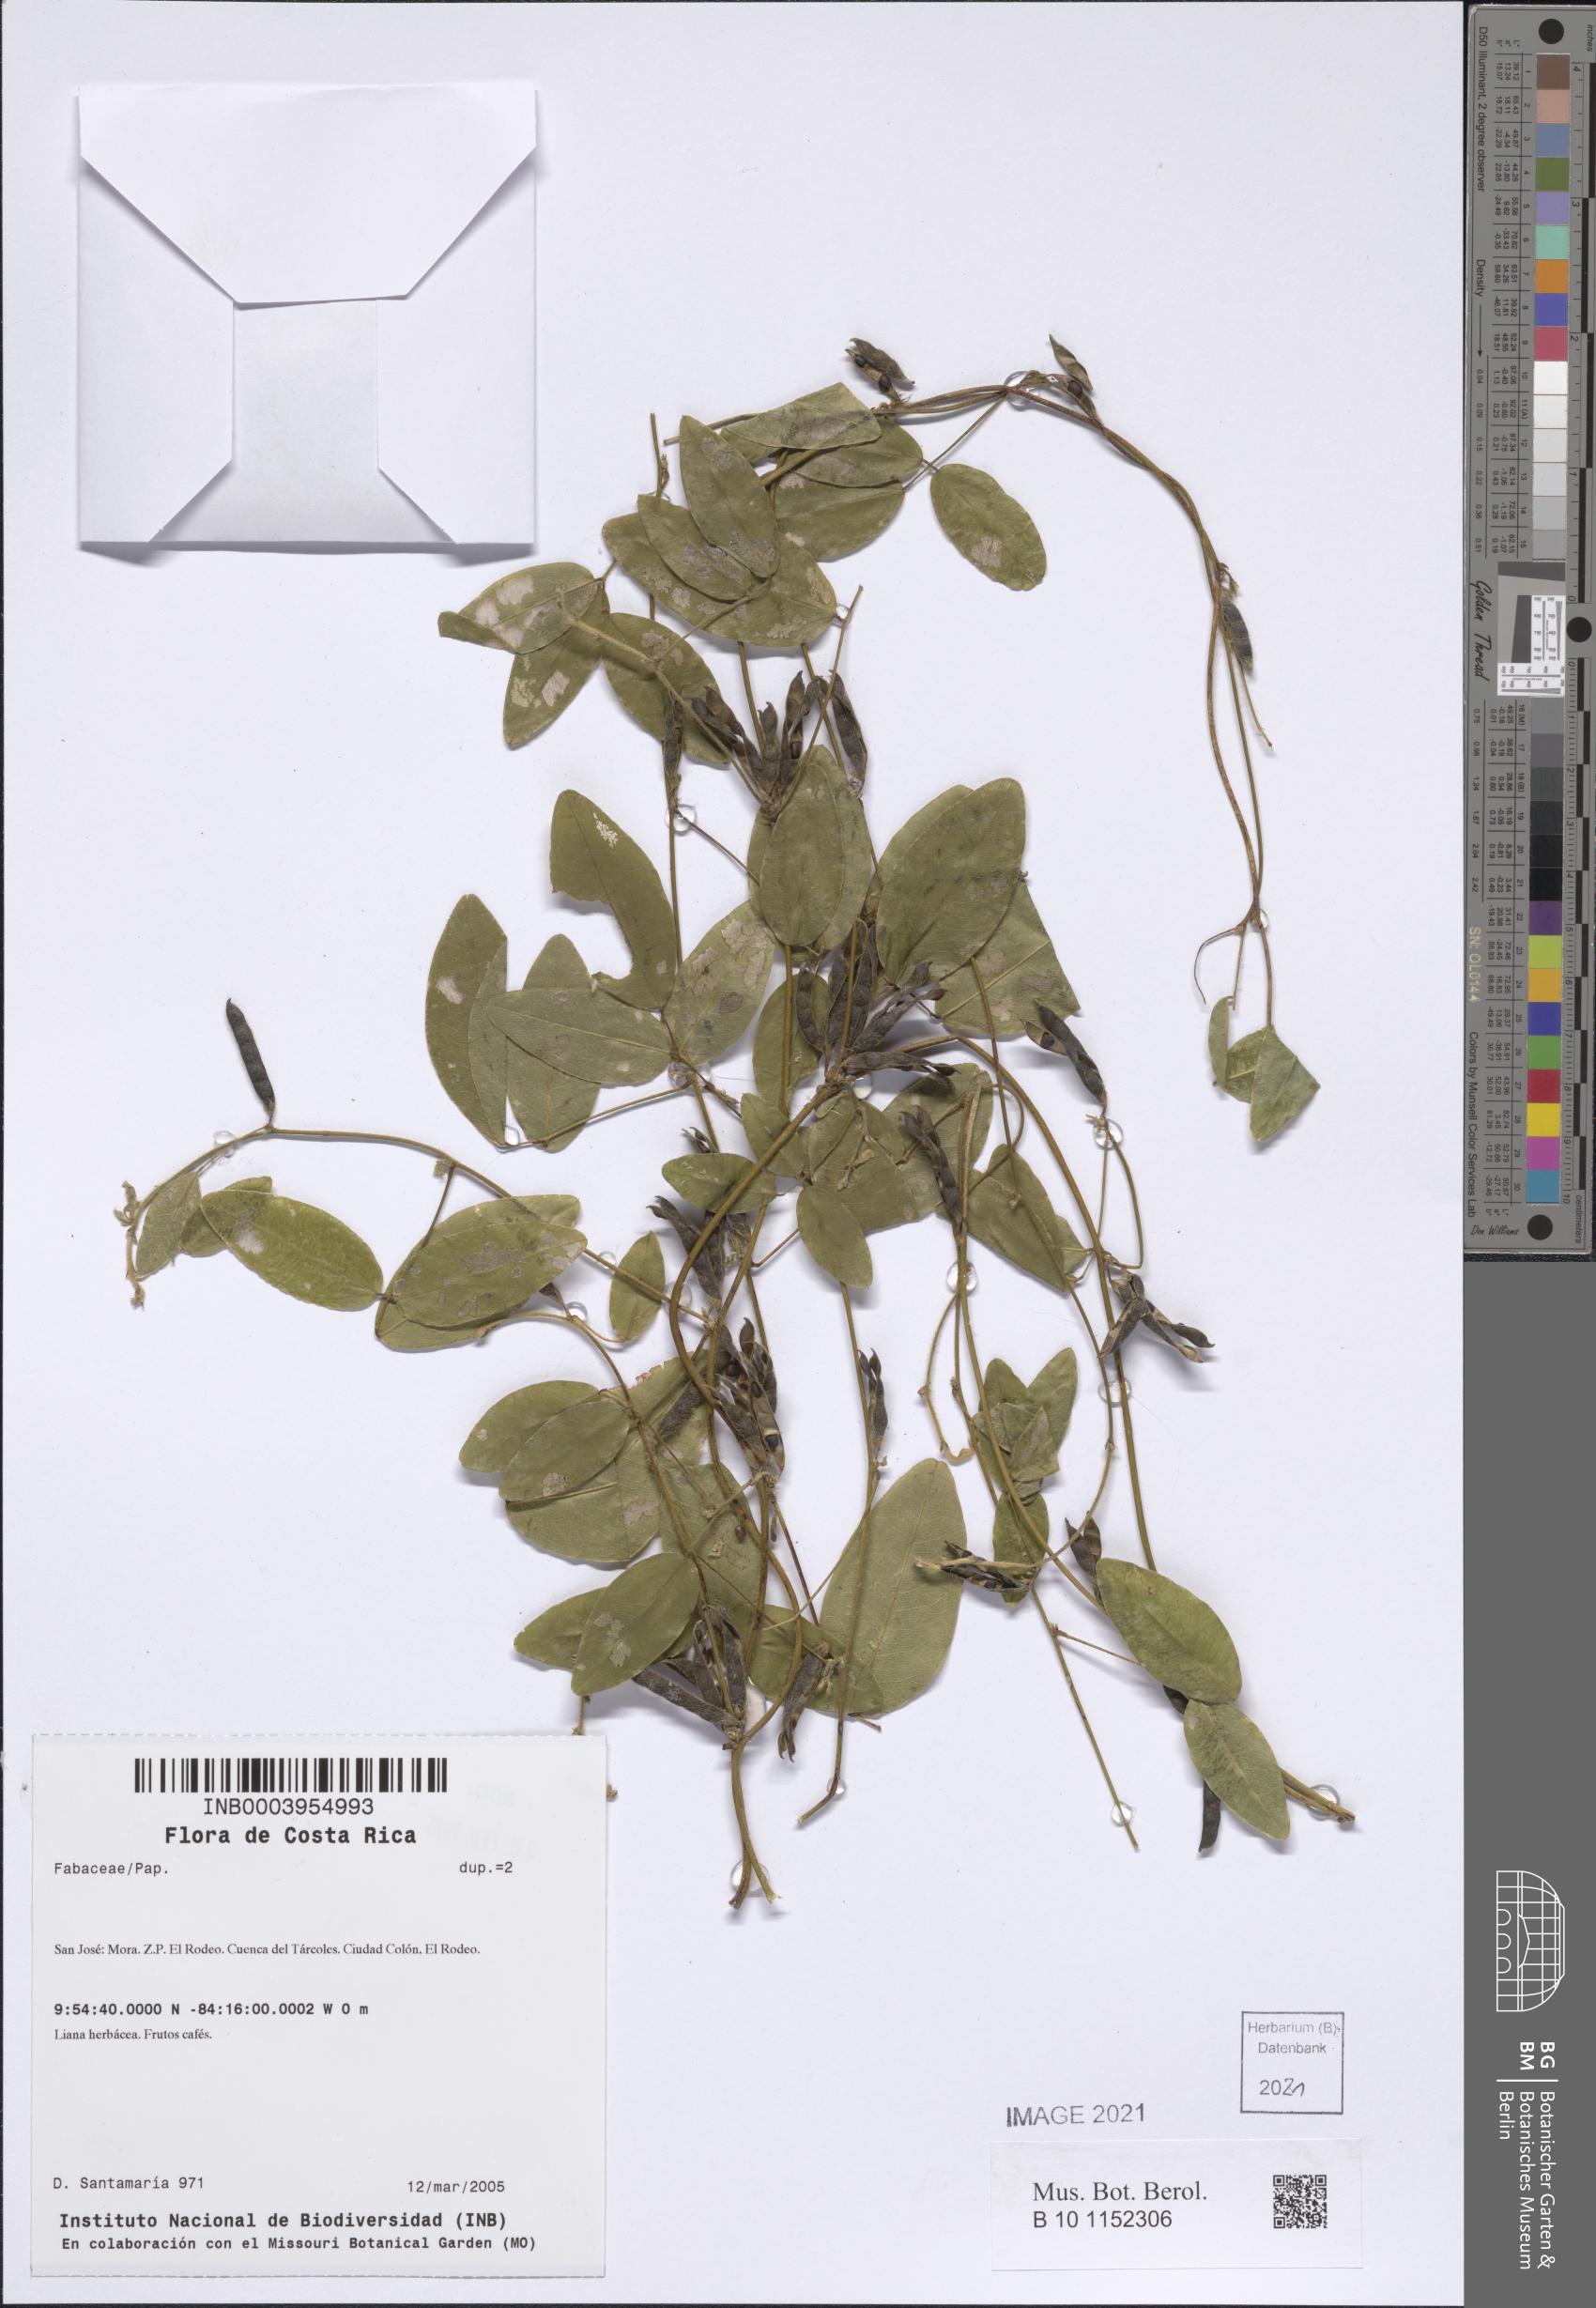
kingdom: Plantae
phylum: Tracheophyta
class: Magnoliopsida
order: Fabales
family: Fabaceae
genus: Calopogonium
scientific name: Calopogonium galactioides
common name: Legume
